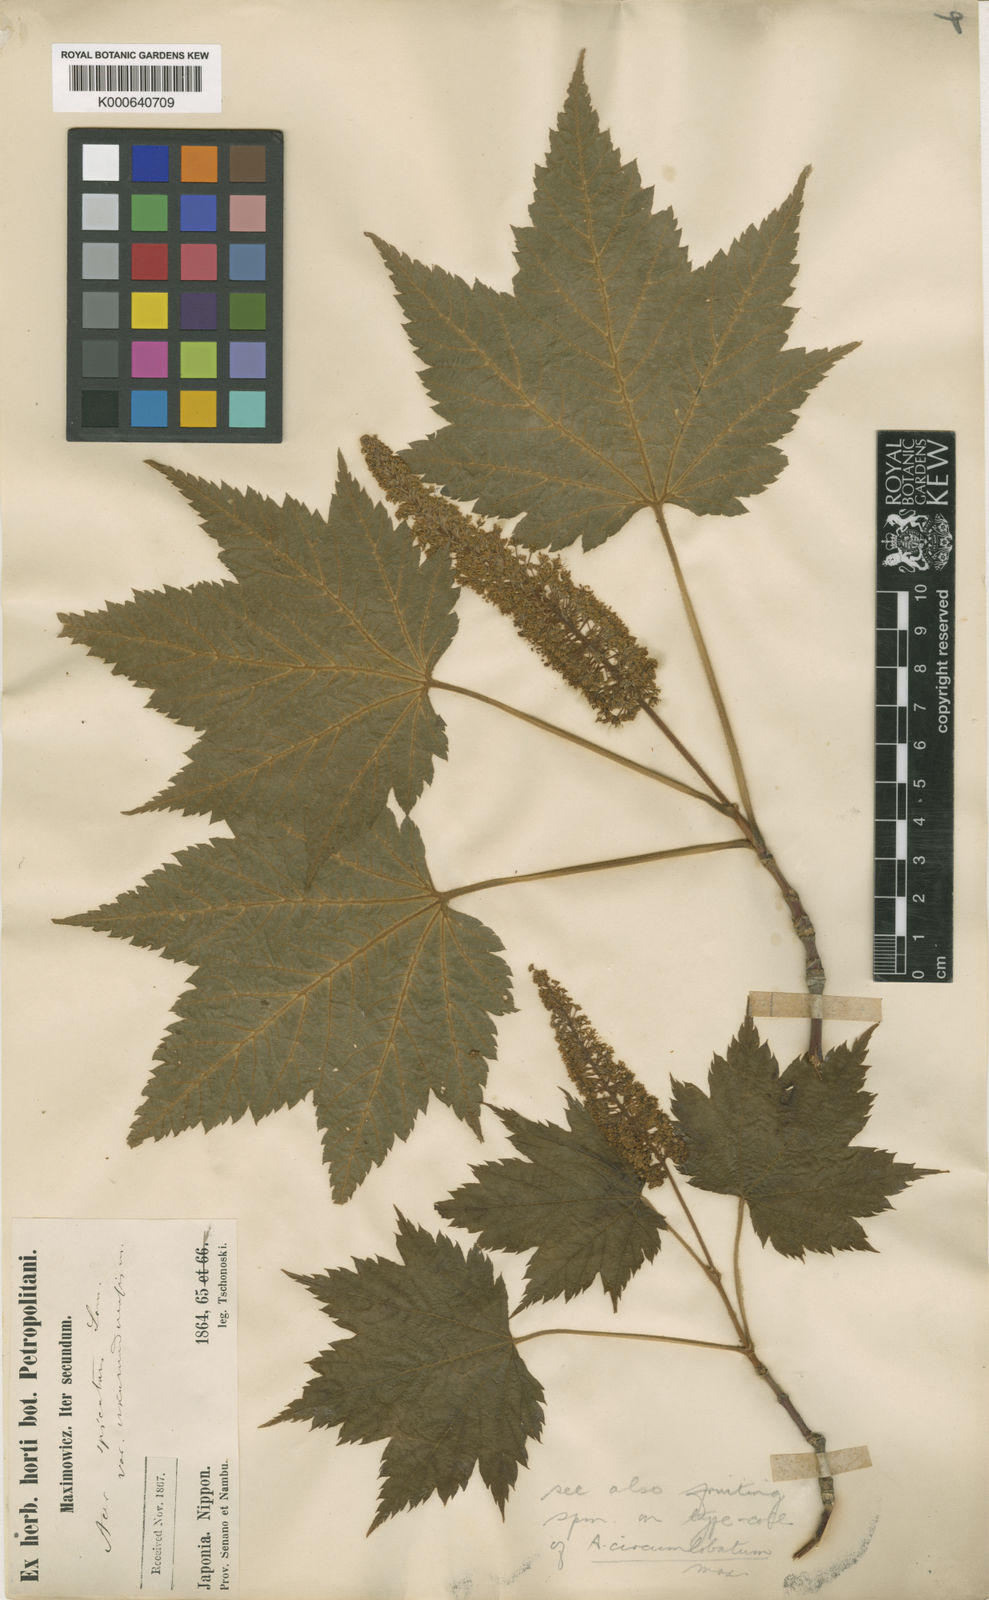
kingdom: Plantae
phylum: Tracheophyta
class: Magnoliopsida
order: Sapindales
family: Sapindaceae
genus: Acer
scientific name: Acer ukurunduense
